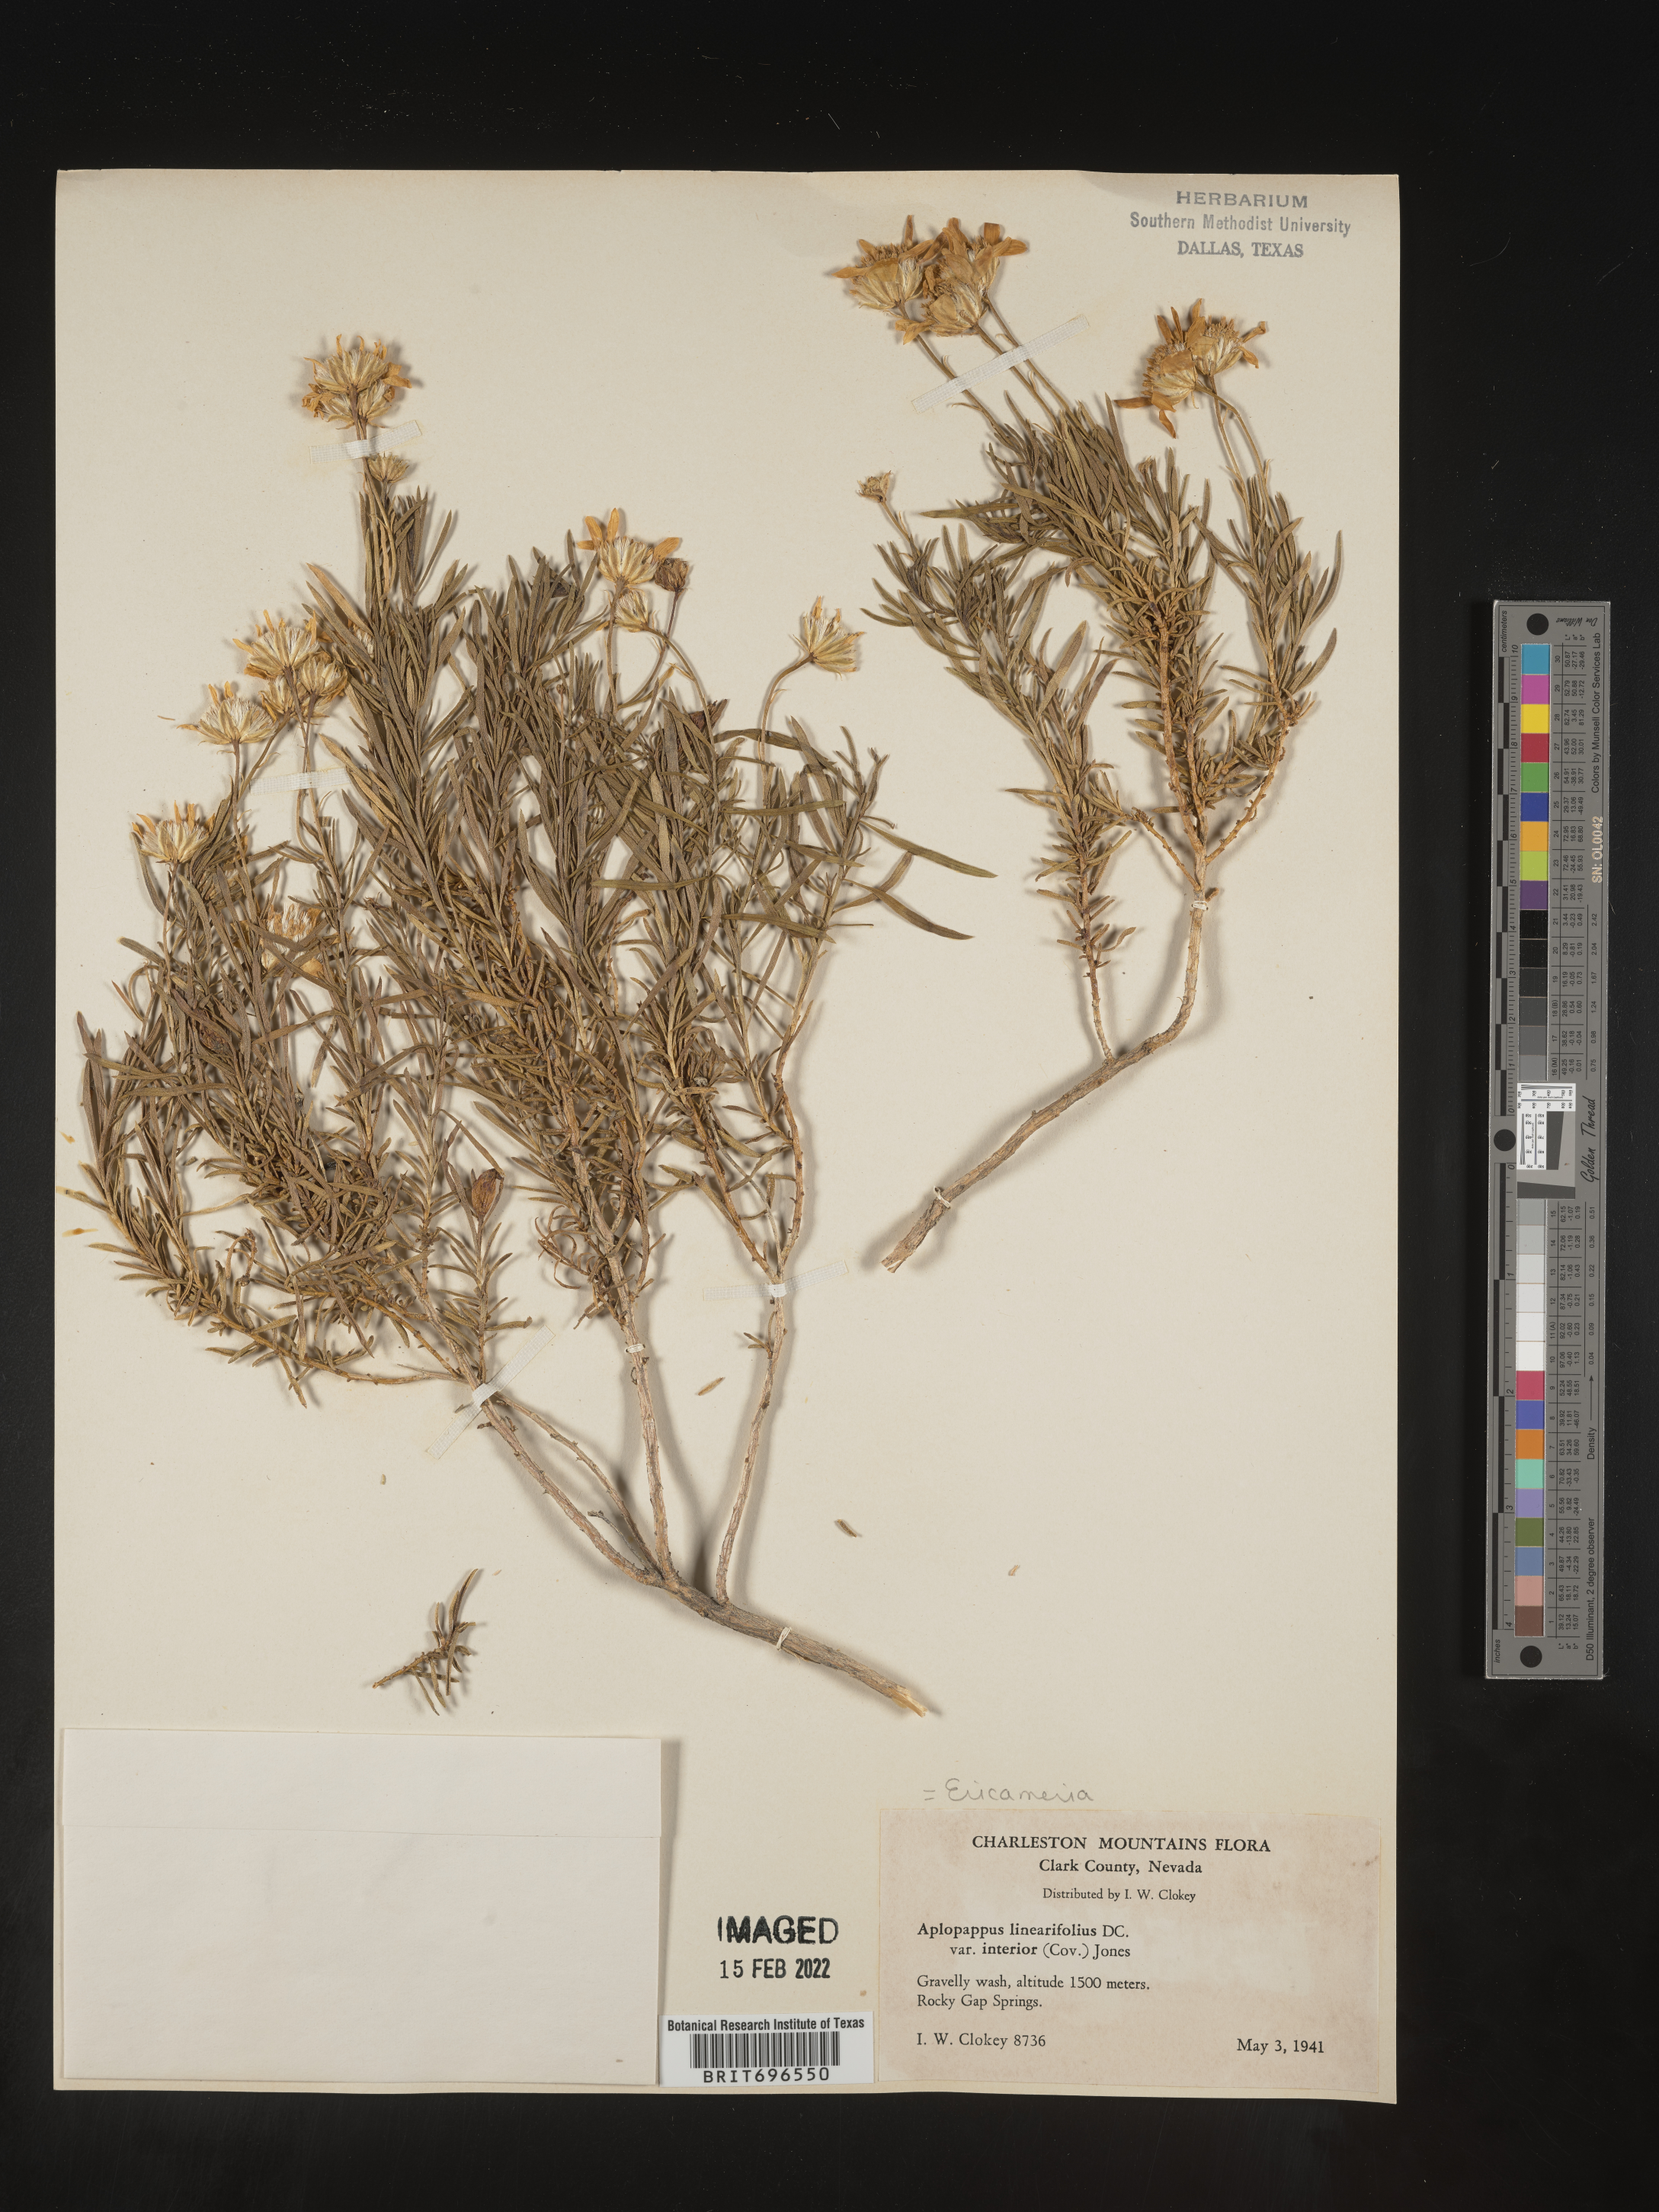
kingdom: Plantae
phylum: Tracheophyta
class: Magnoliopsida
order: Asterales
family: Asteraceae
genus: Ericameria
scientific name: Ericameria linearifolia
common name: Interior goldenbush
